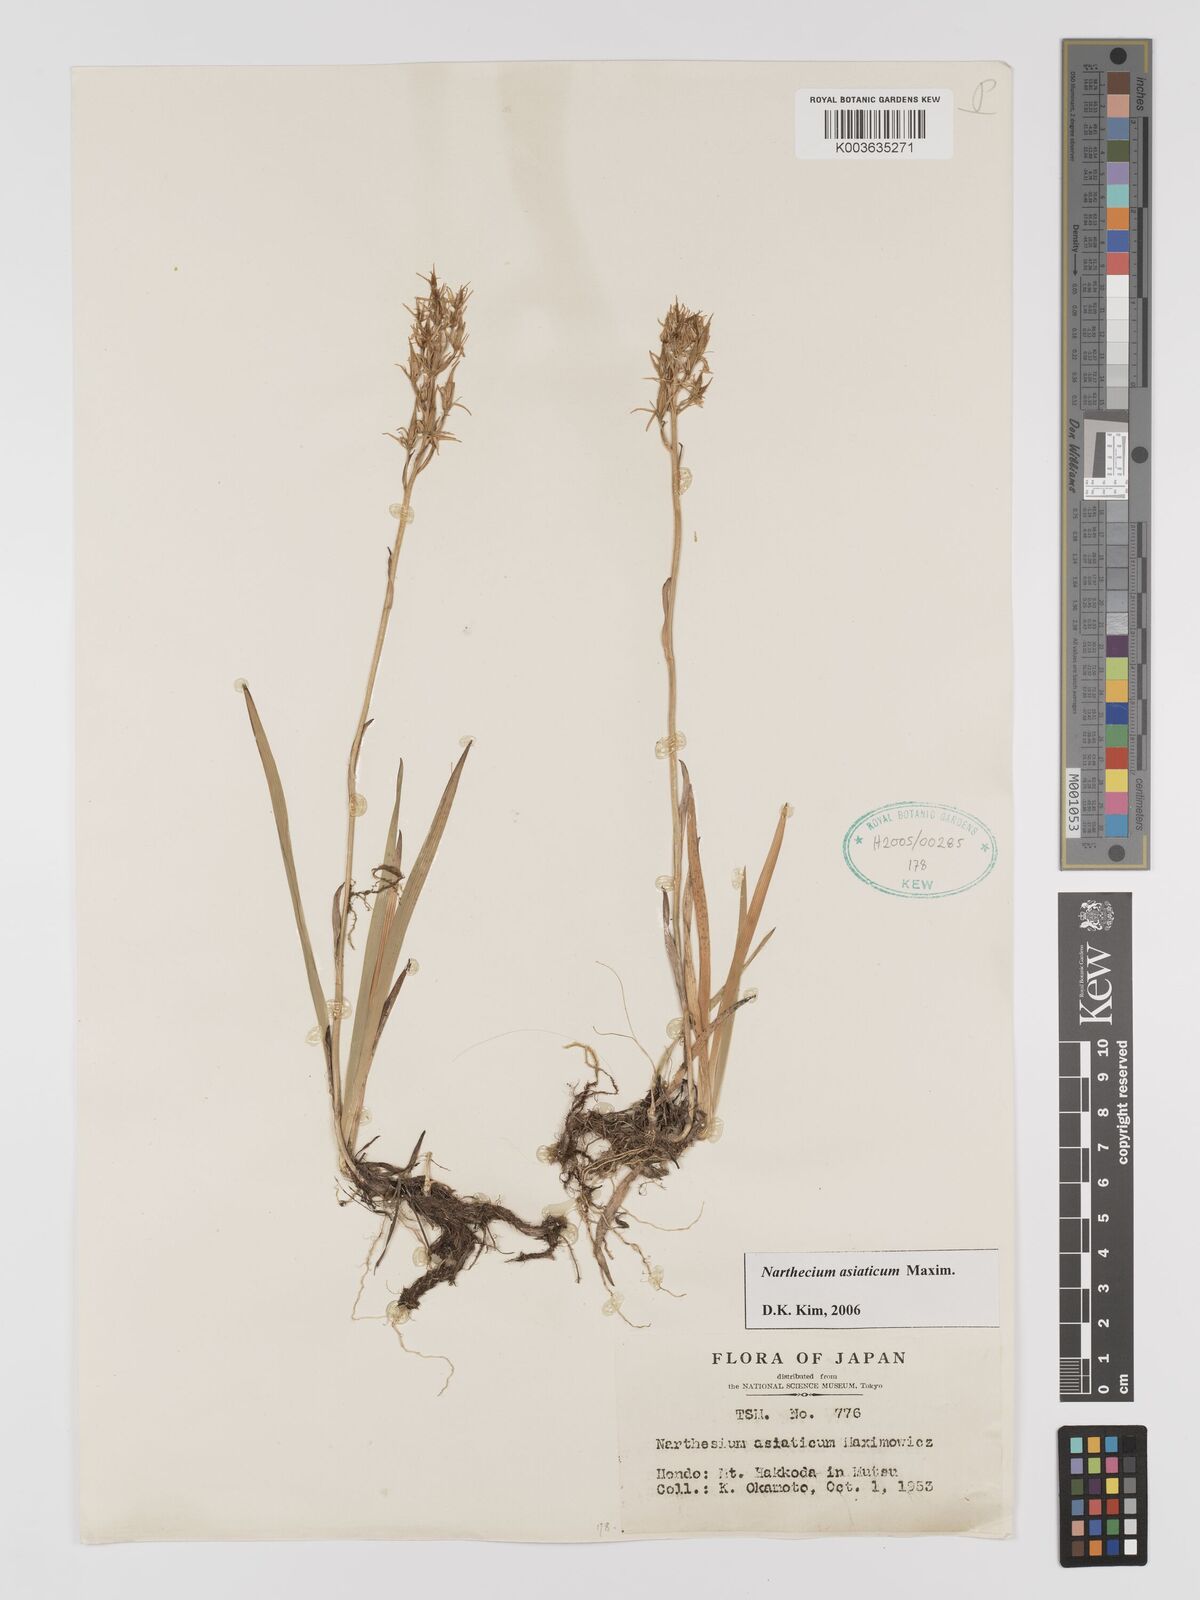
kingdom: Plantae
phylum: Tracheophyta
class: Liliopsida
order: Dioscoreales
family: Nartheciaceae
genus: Narthecium
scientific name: Narthecium asiaticum
